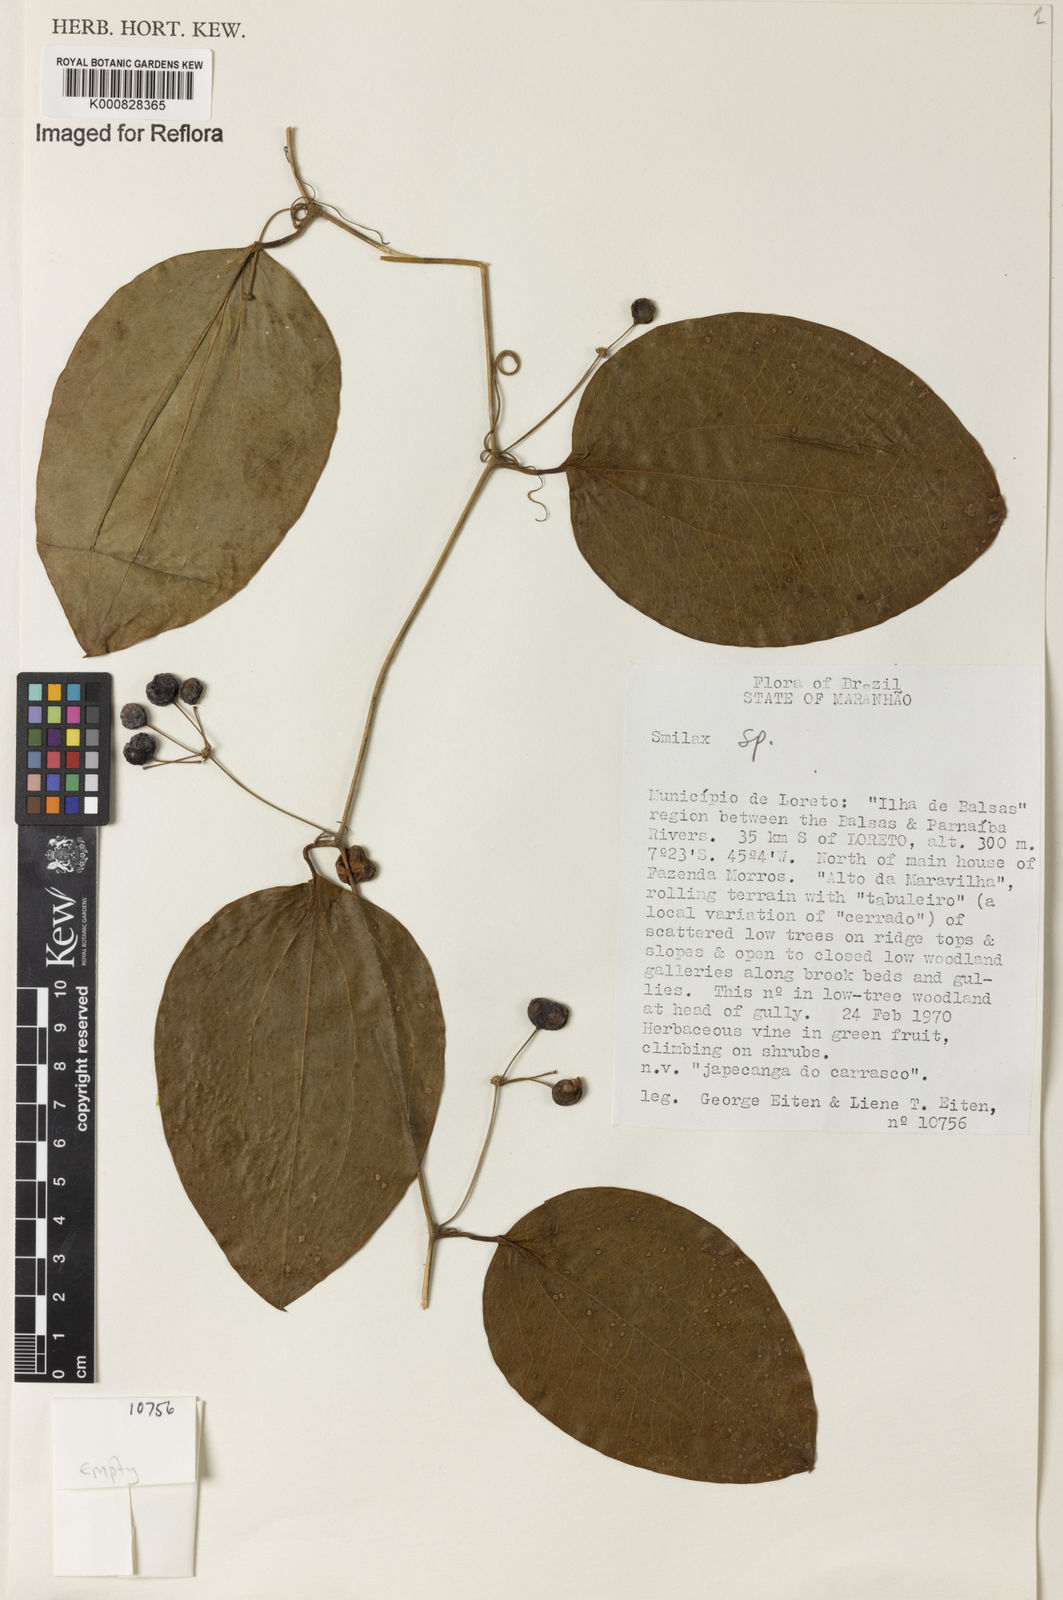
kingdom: Plantae
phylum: Tracheophyta
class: Liliopsida
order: Liliales
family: Smilacaceae
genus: Smilax
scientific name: Smilax
